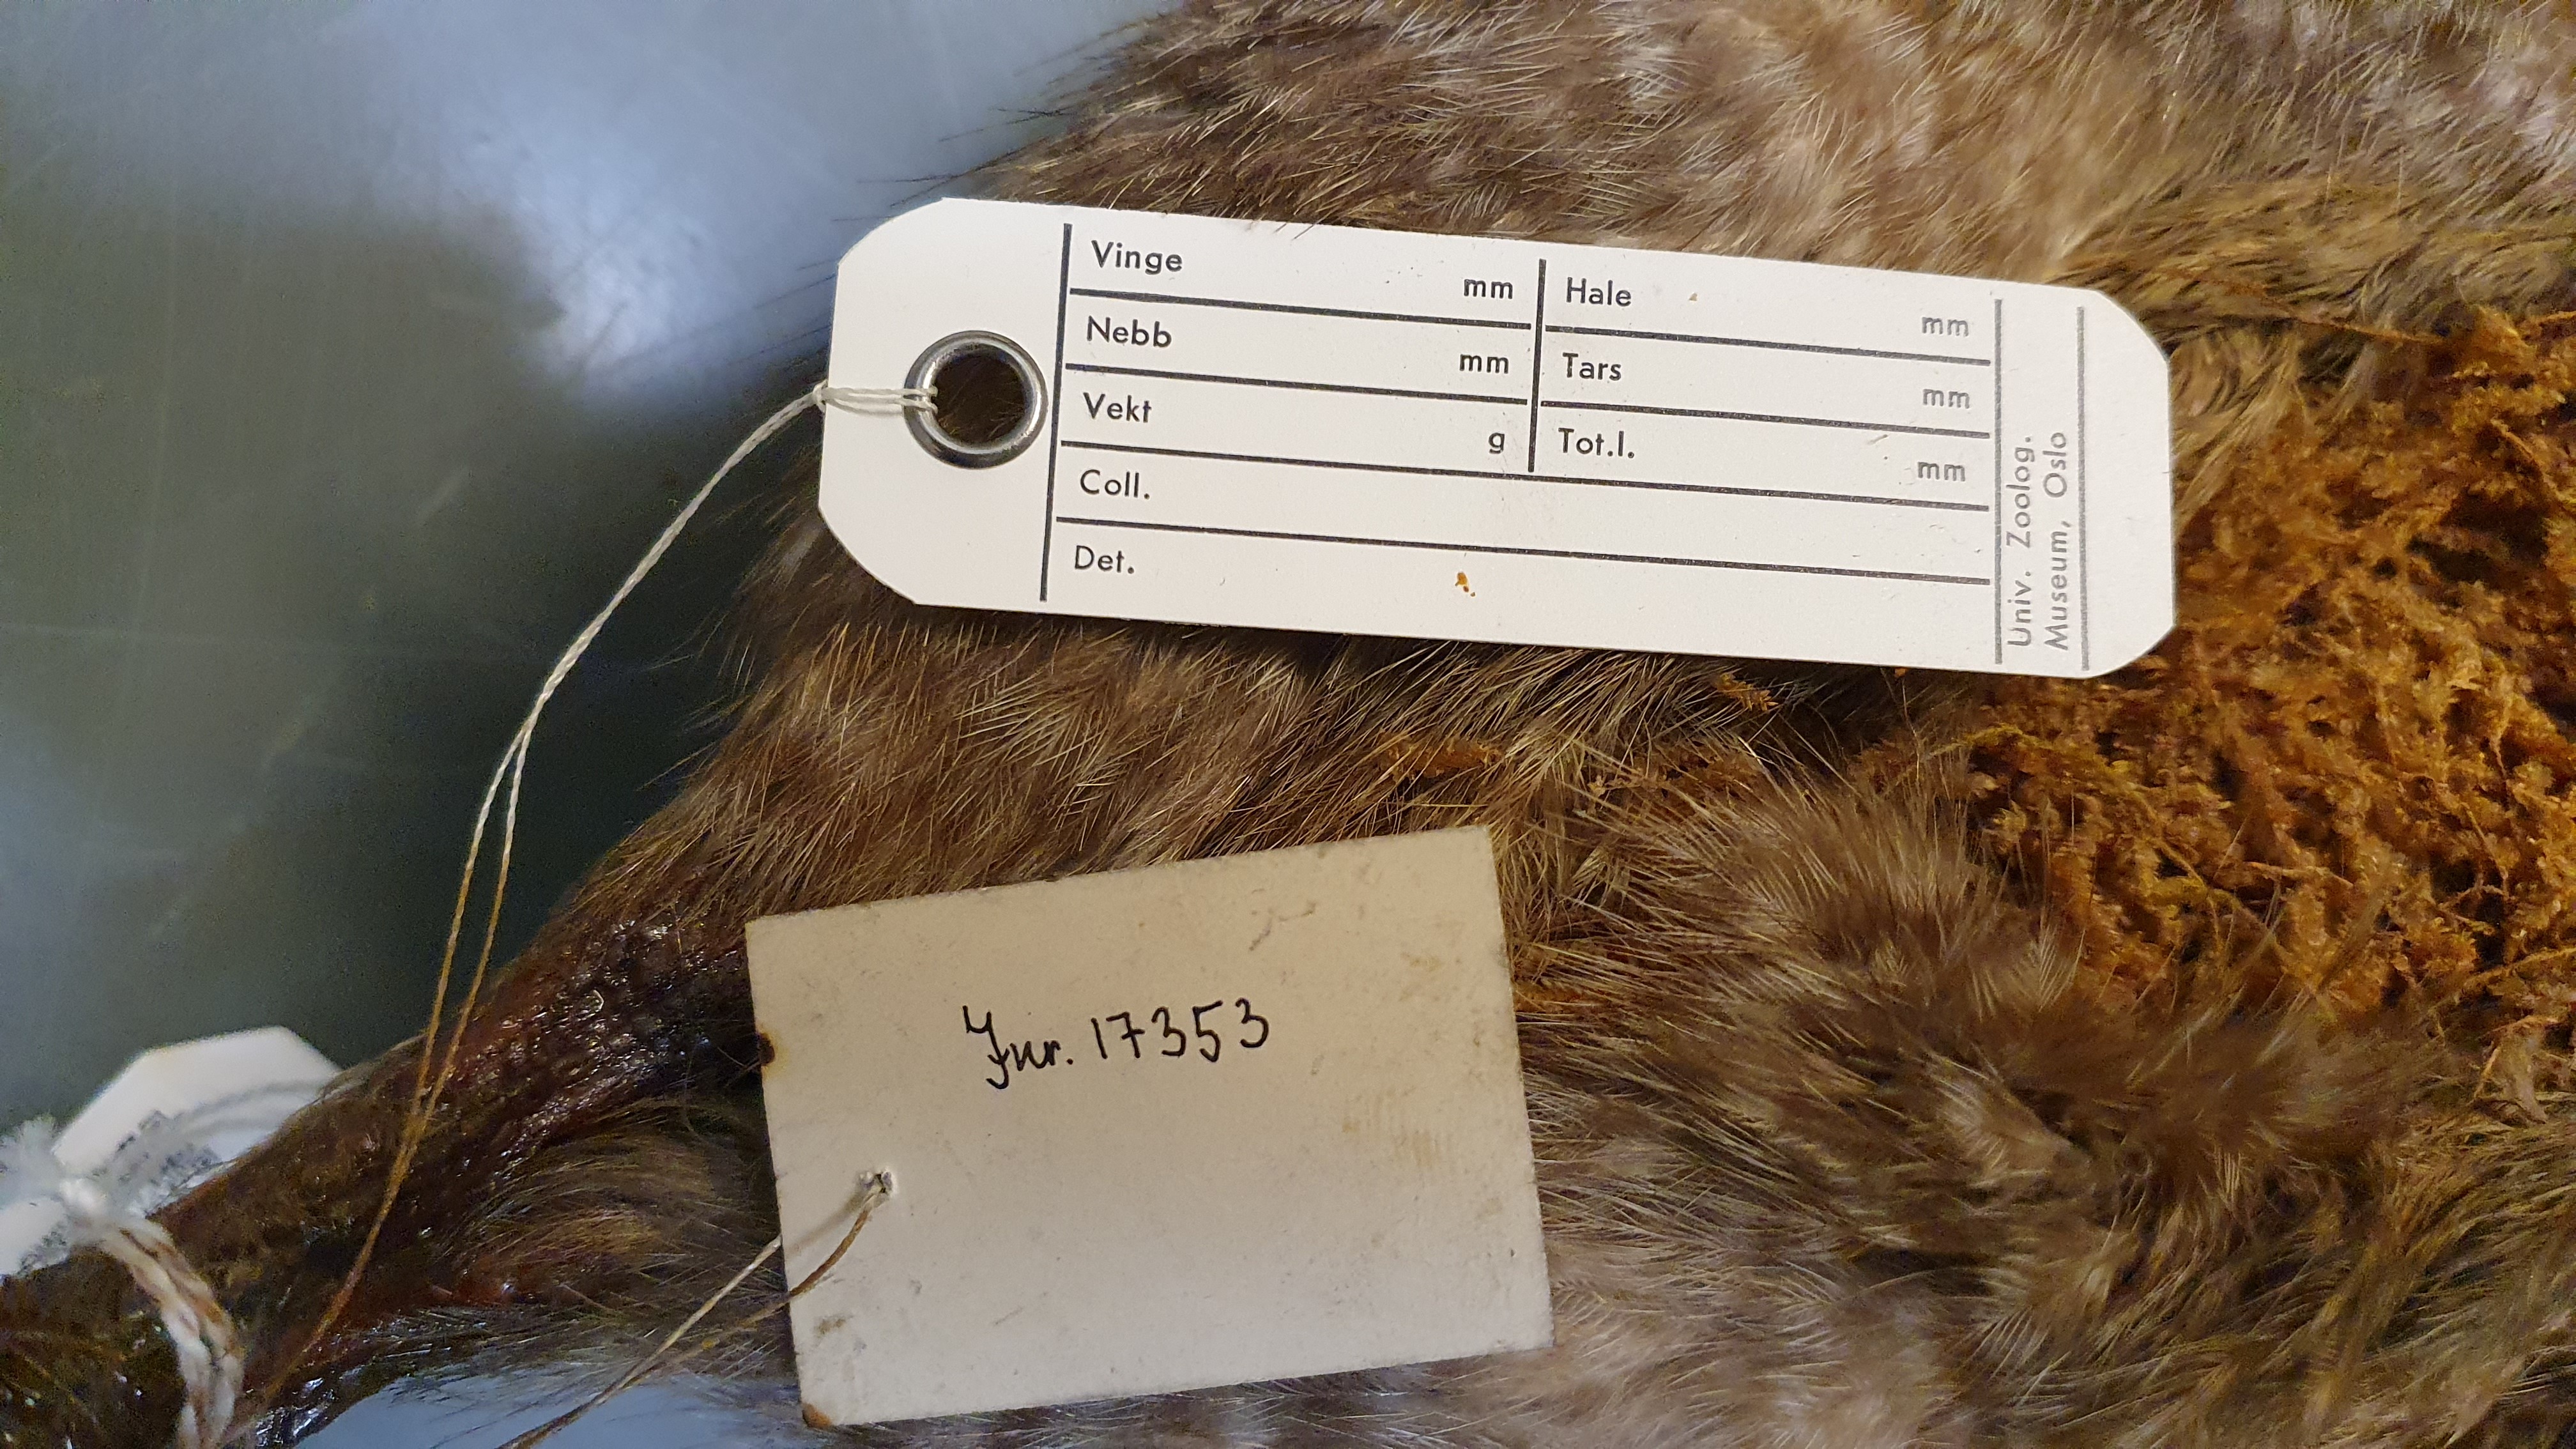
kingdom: Animalia
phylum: Chordata
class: Aves
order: Apterygiformes
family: Apterygidae
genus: Apteryx
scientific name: Apteryx owenii
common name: Little spotted kiwi
